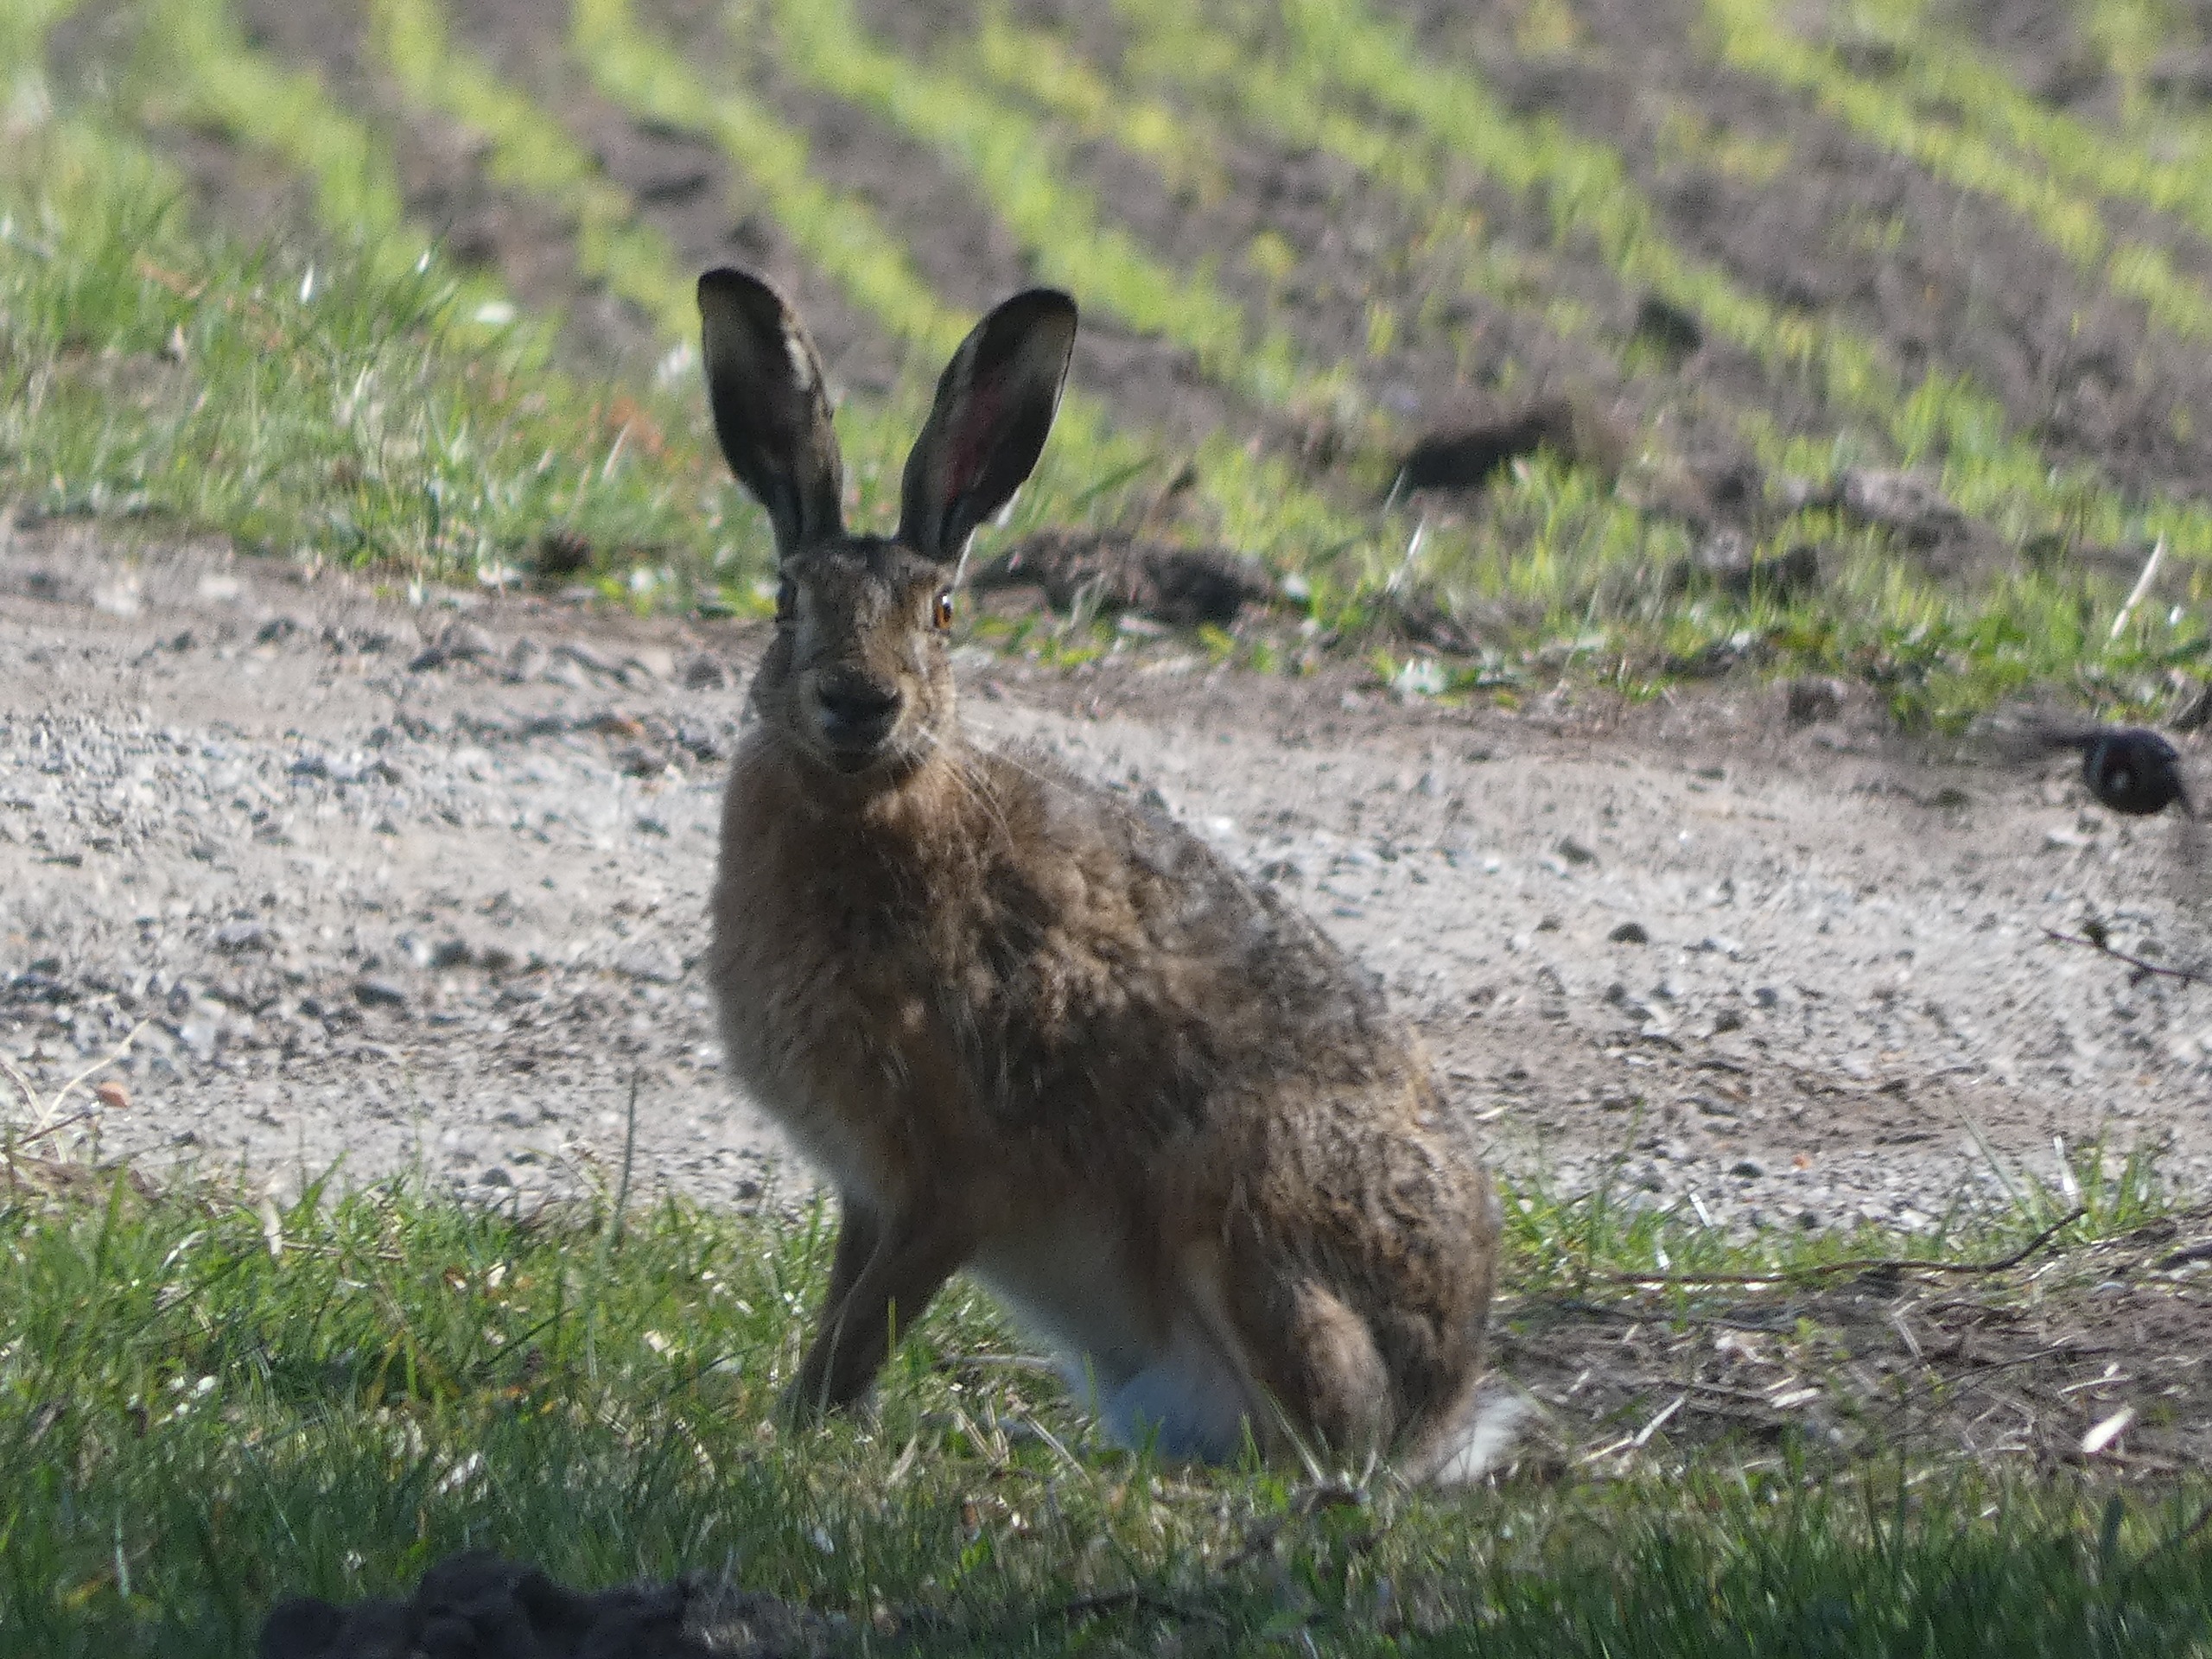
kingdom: Animalia
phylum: Chordata
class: Aves
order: Passeriformes
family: Fringillidae
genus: Carduelis
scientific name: Carduelis carduelis
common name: Stillits
